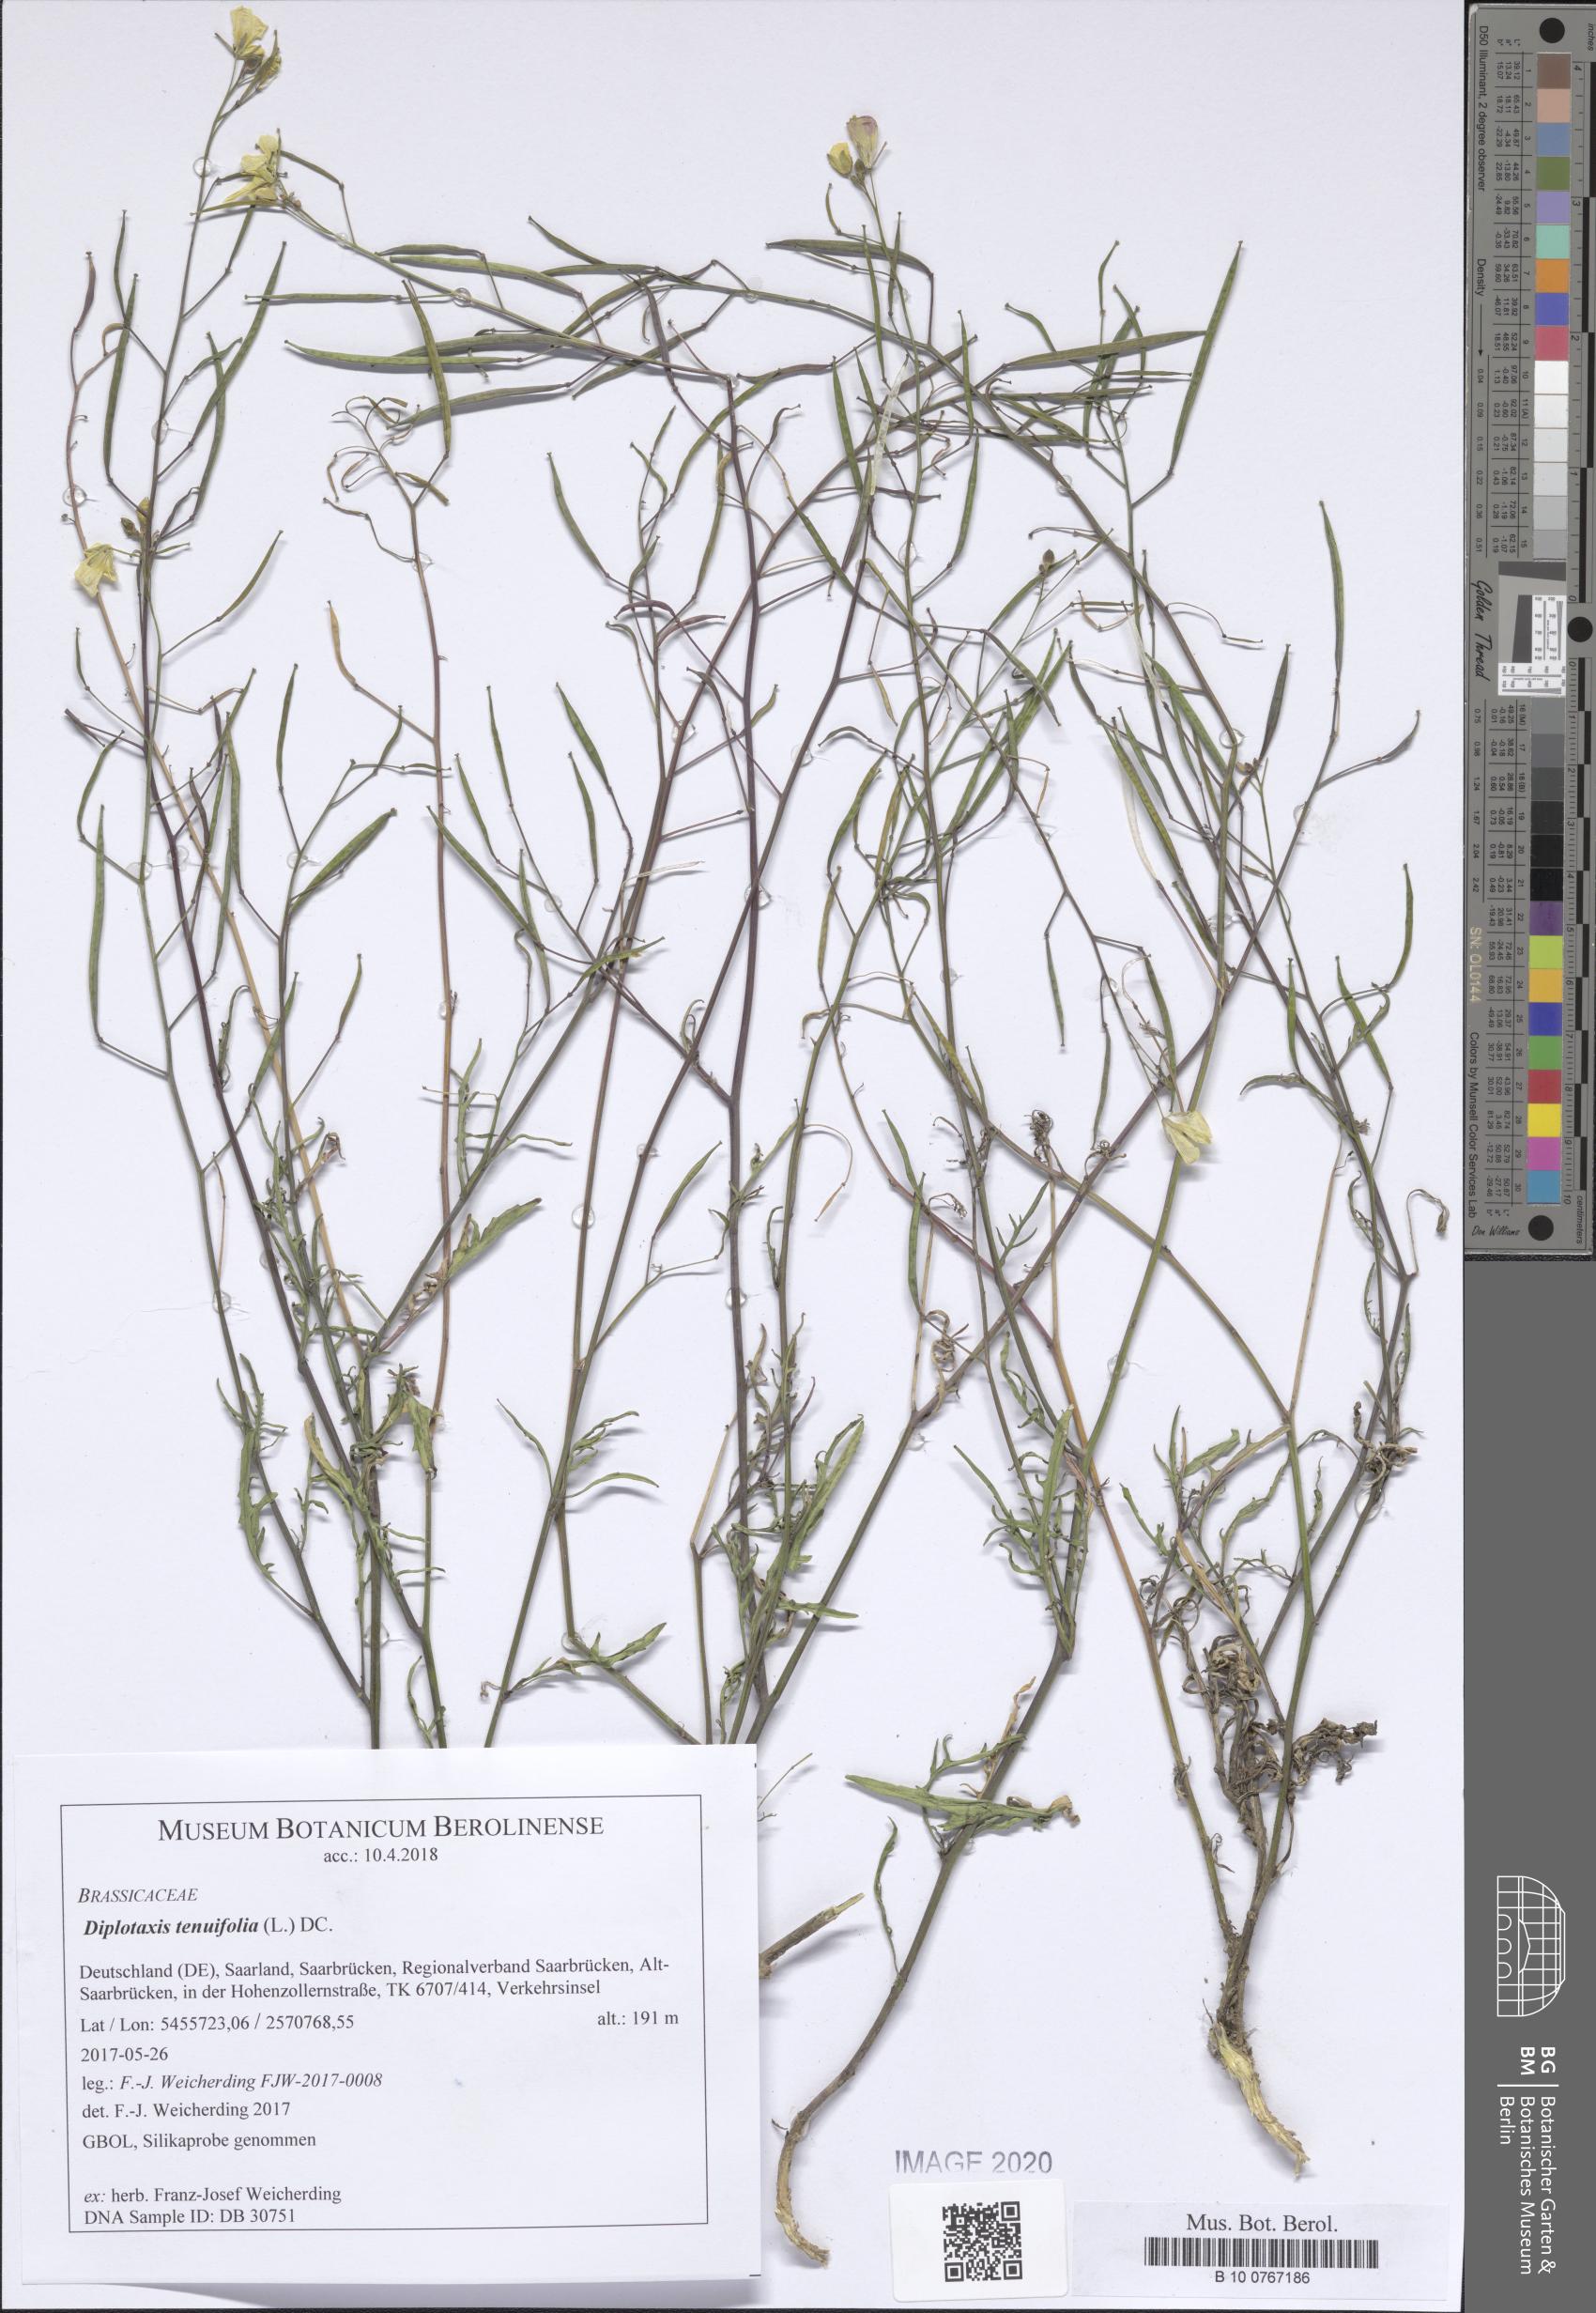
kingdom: Plantae
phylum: Tracheophyta
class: Magnoliopsida
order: Brassicales
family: Brassicaceae
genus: Diplotaxis
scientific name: Diplotaxis tenuifolia
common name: Perennial wall-rocket
